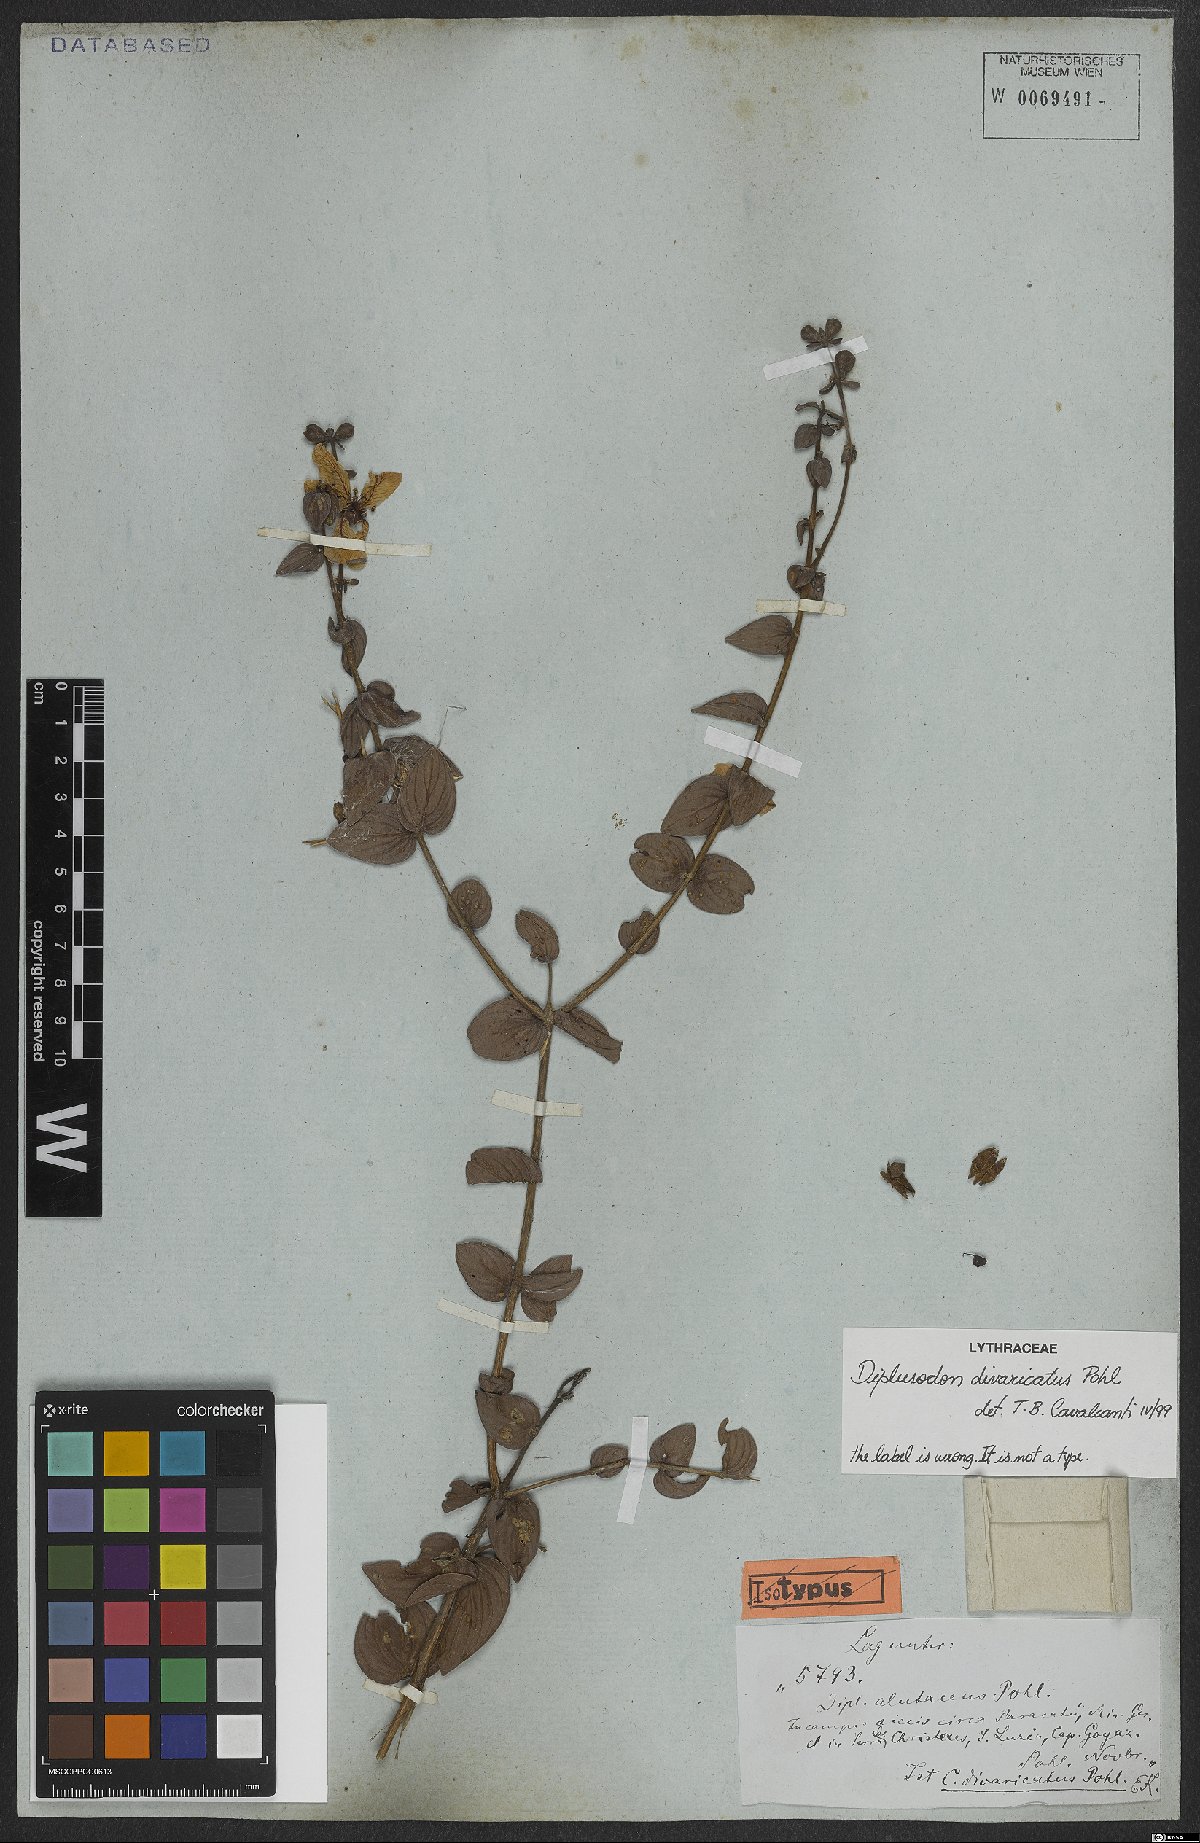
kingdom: Plantae
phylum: Tracheophyta
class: Magnoliopsida
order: Myrtales
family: Lythraceae
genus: Diplusodon
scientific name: Diplusodon divaricatus
